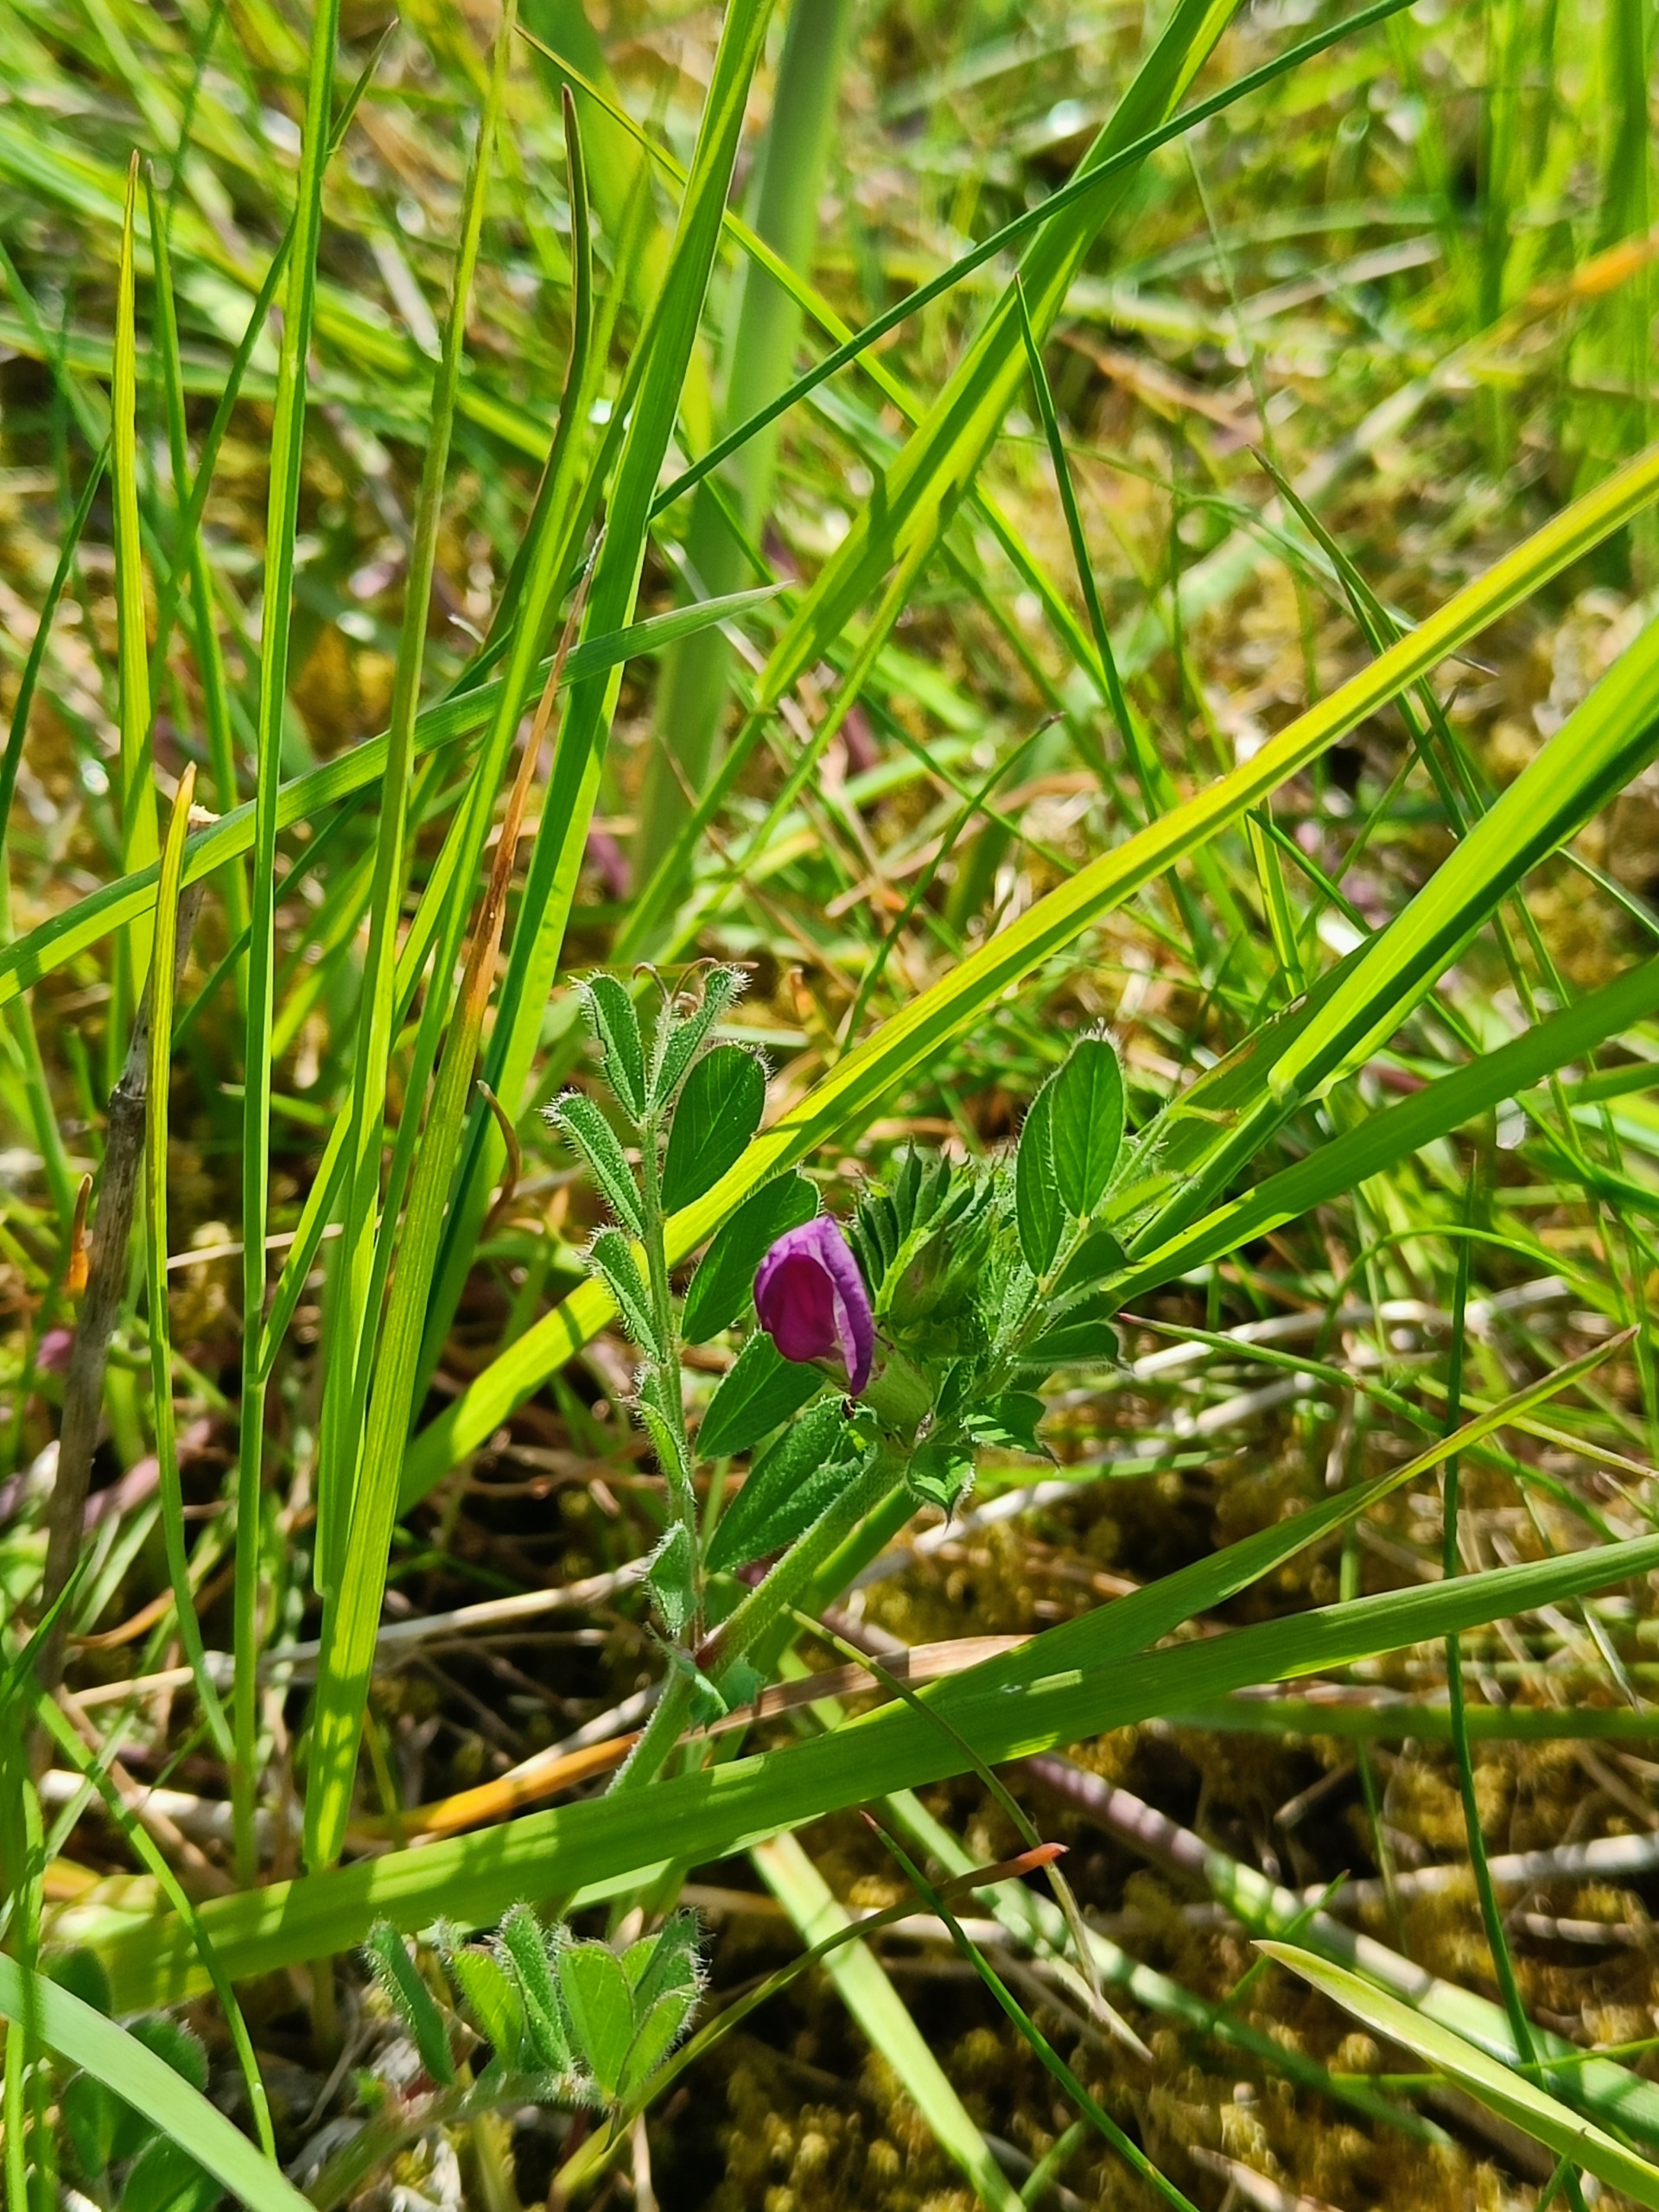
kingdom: Plantae
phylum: Tracheophyta
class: Magnoliopsida
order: Fabales
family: Fabaceae
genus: Vicia
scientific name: Vicia sativa
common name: Foder-vikke
